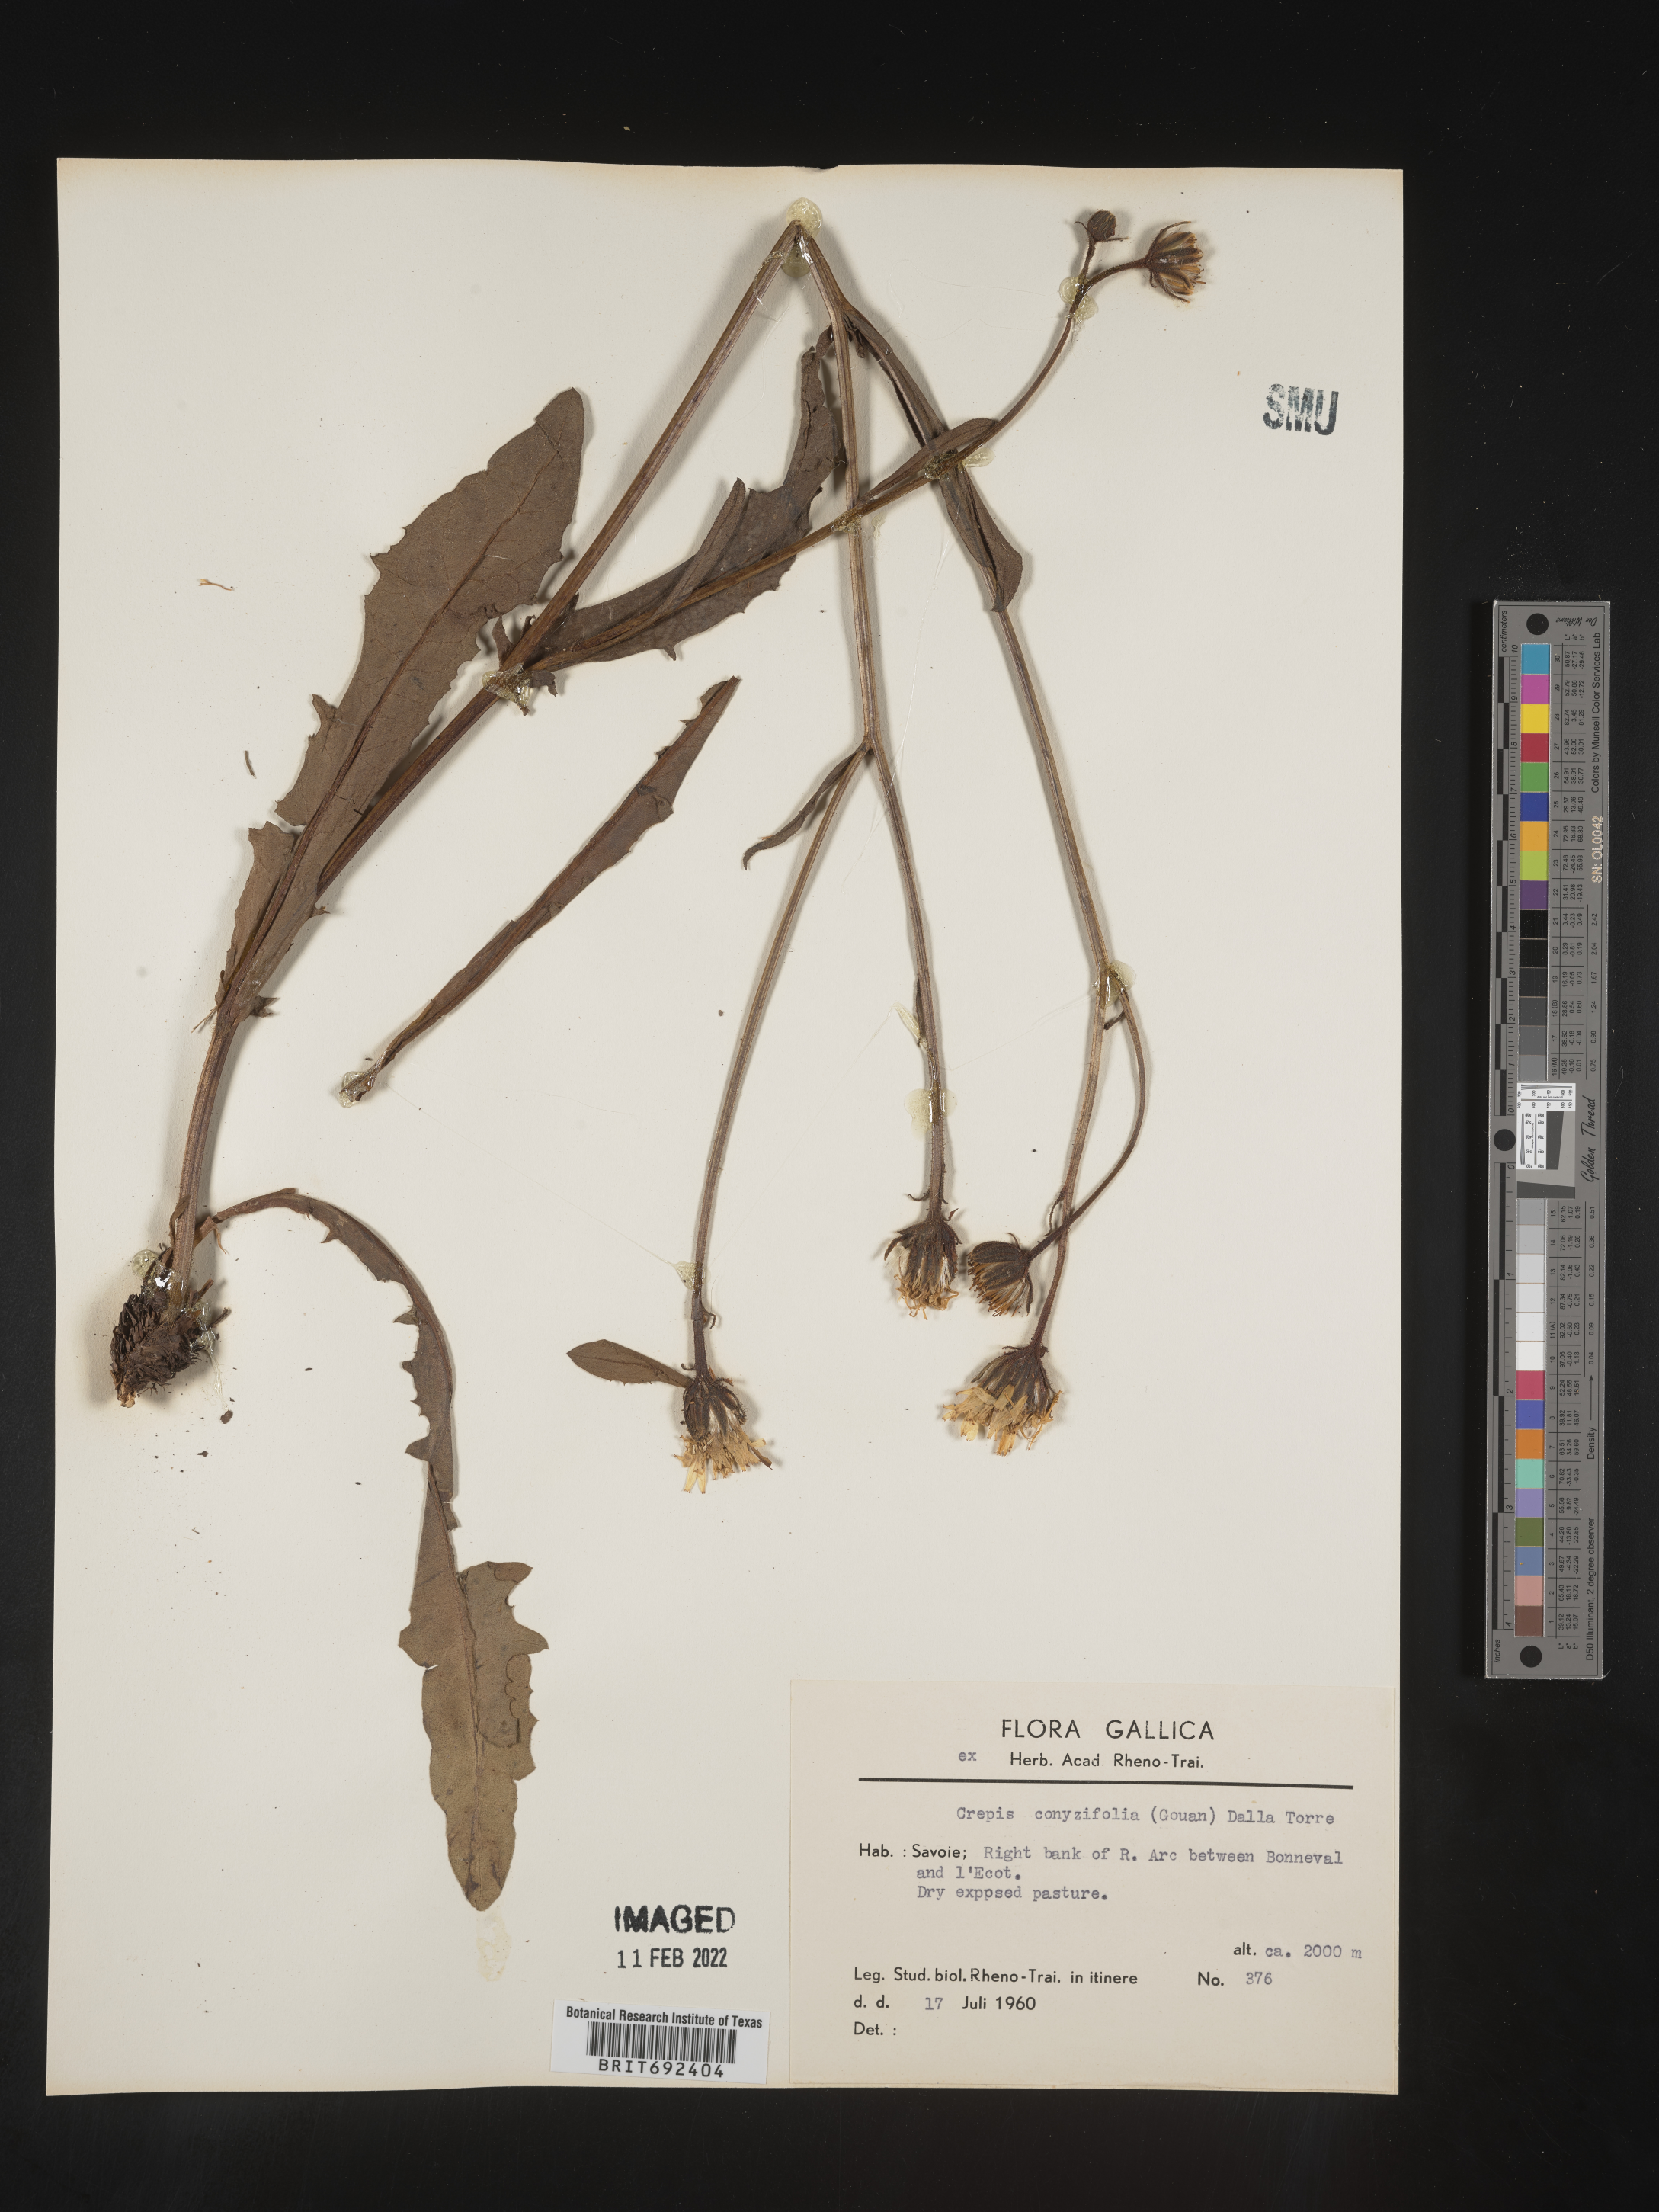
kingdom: Plantae
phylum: Tracheophyta
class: Magnoliopsida
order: Asterales
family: Asteraceae
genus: Crepis
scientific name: Crepis
